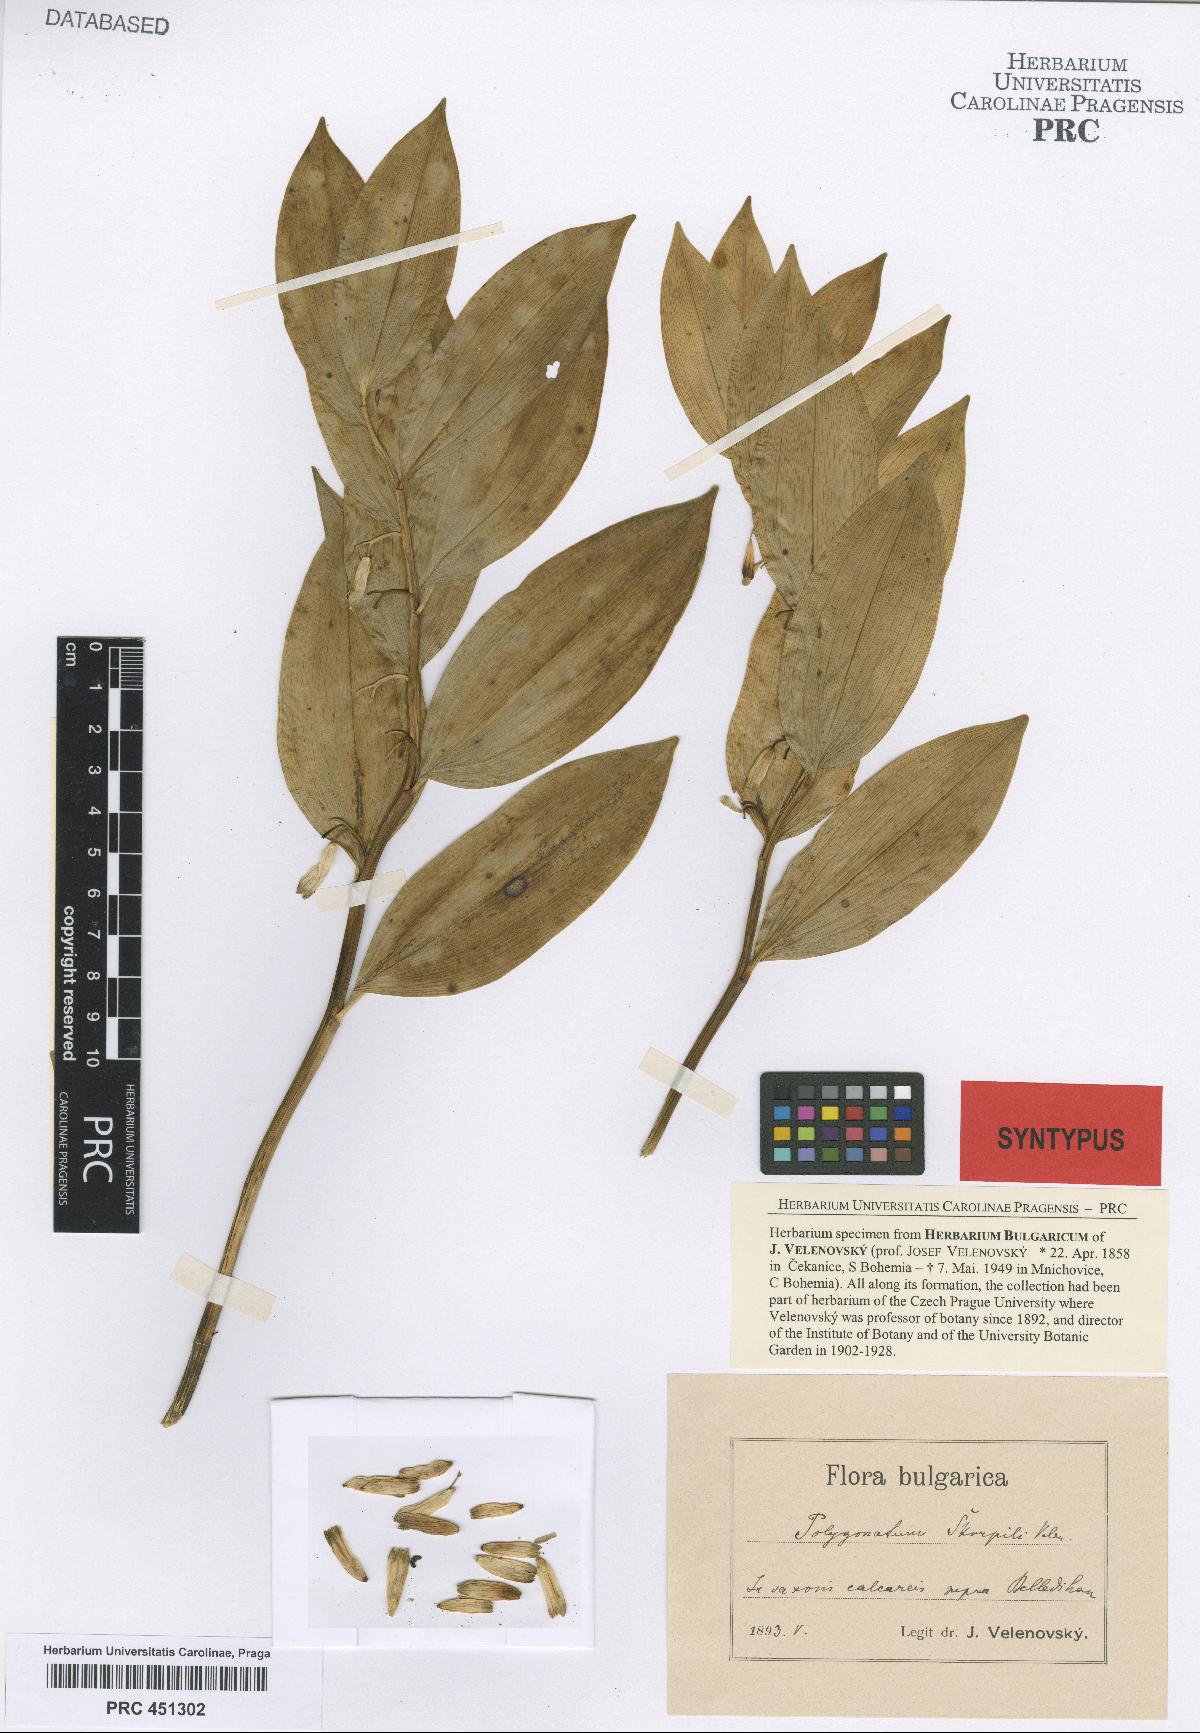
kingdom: Plantae
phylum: Tracheophyta
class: Liliopsida
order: Asparagales
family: Asparagaceae
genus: Polygonatum
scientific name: Polygonatum latifolium
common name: Broadleaf solomon's seal
